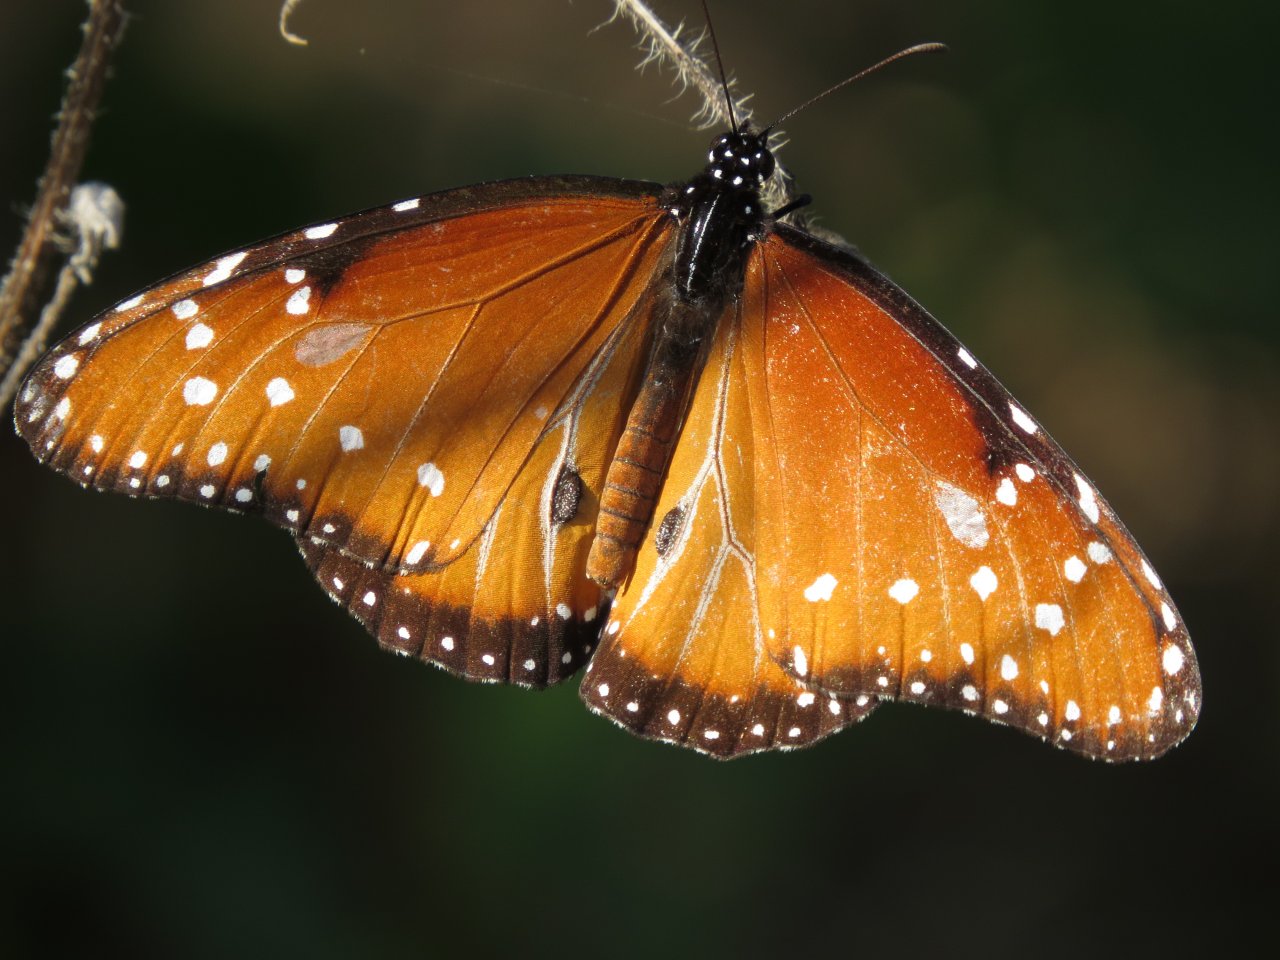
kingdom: Animalia
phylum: Arthropoda
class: Insecta
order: Lepidoptera
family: Nymphalidae
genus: Danaus
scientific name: Danaus gilippus
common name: Queen
